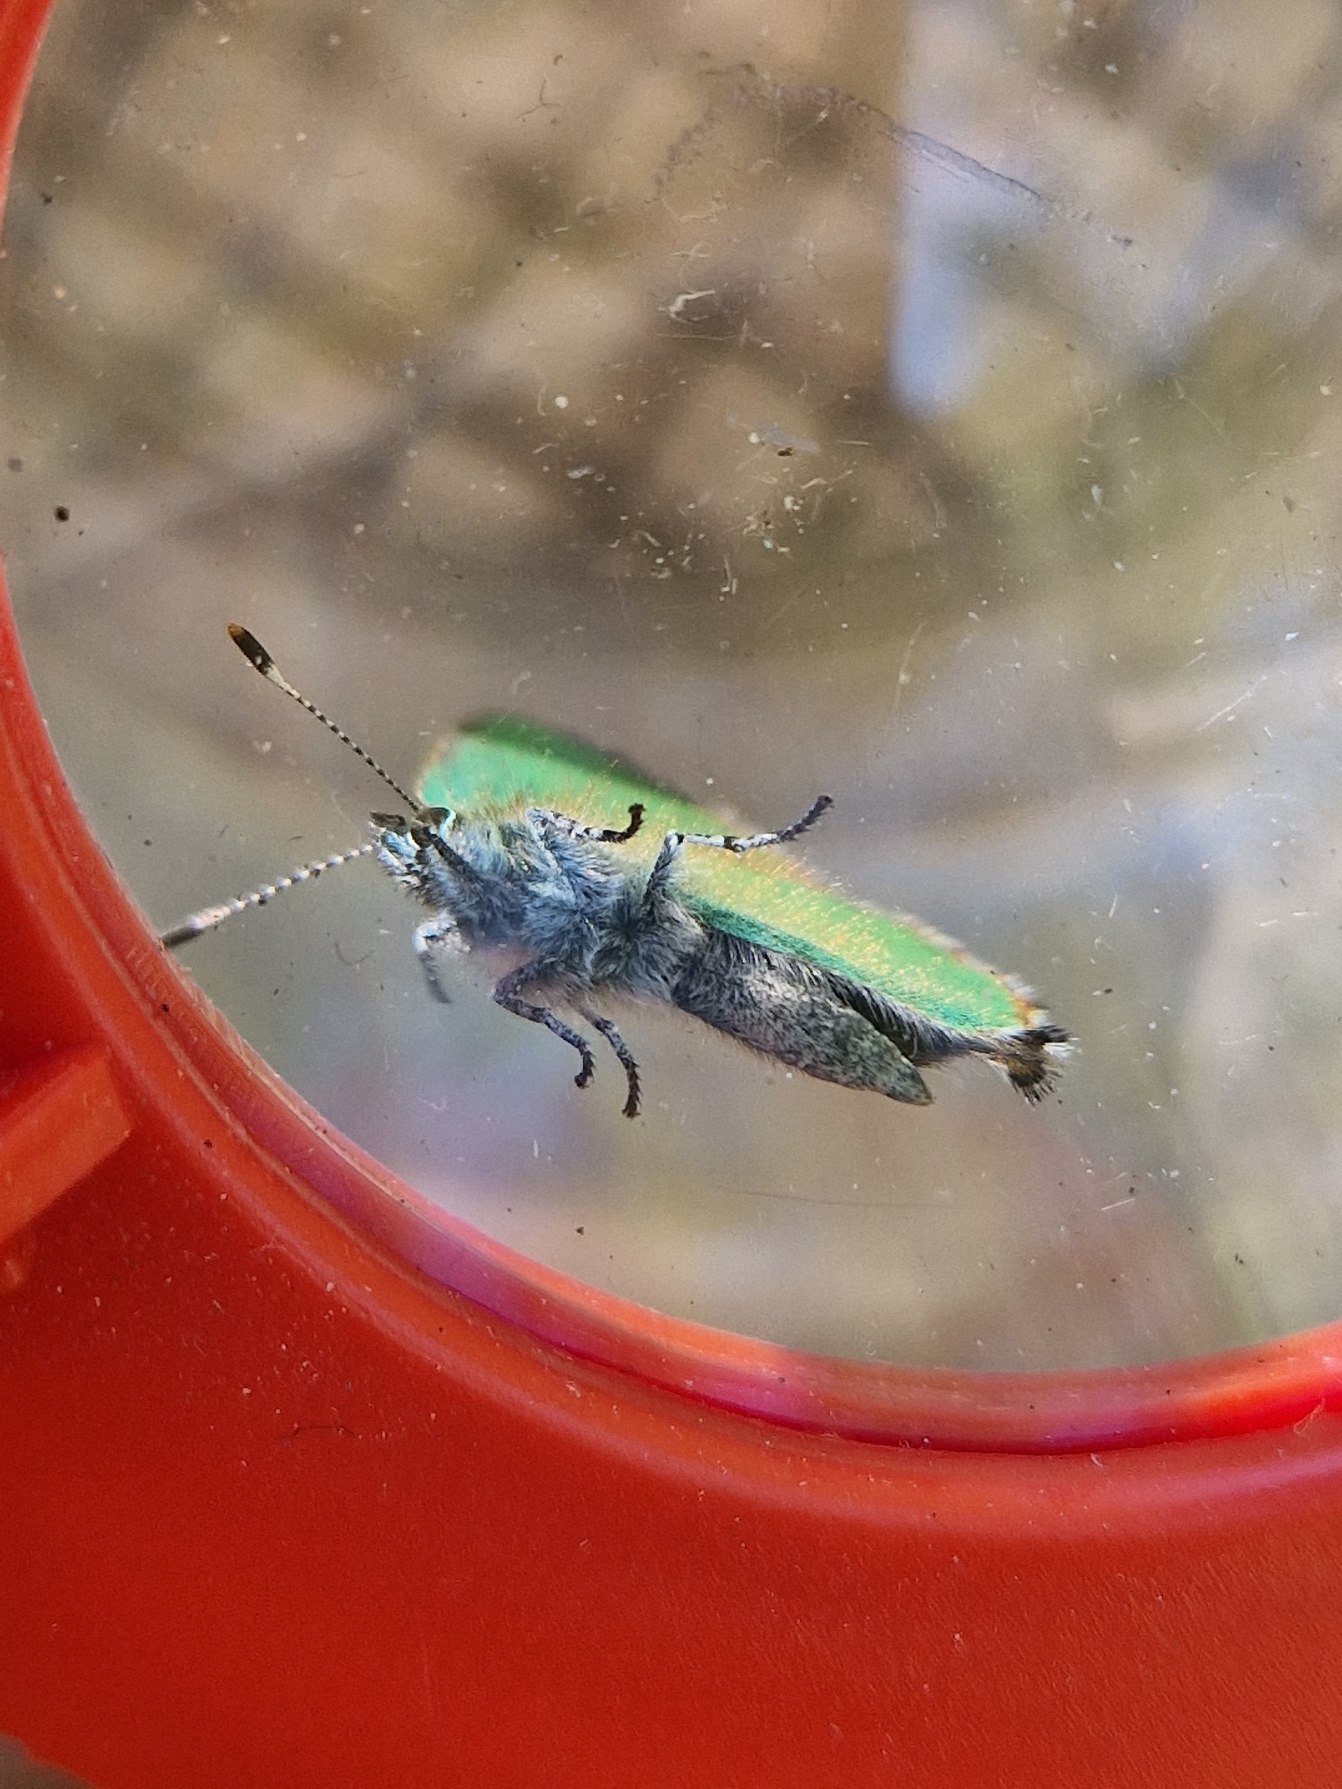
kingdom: Animalia
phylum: Arthropoda
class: Insecta
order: Lepidoptera
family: Lycaenidae
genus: Callophrys
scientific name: Callophrys rubi
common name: Grøn busksommerfugl
